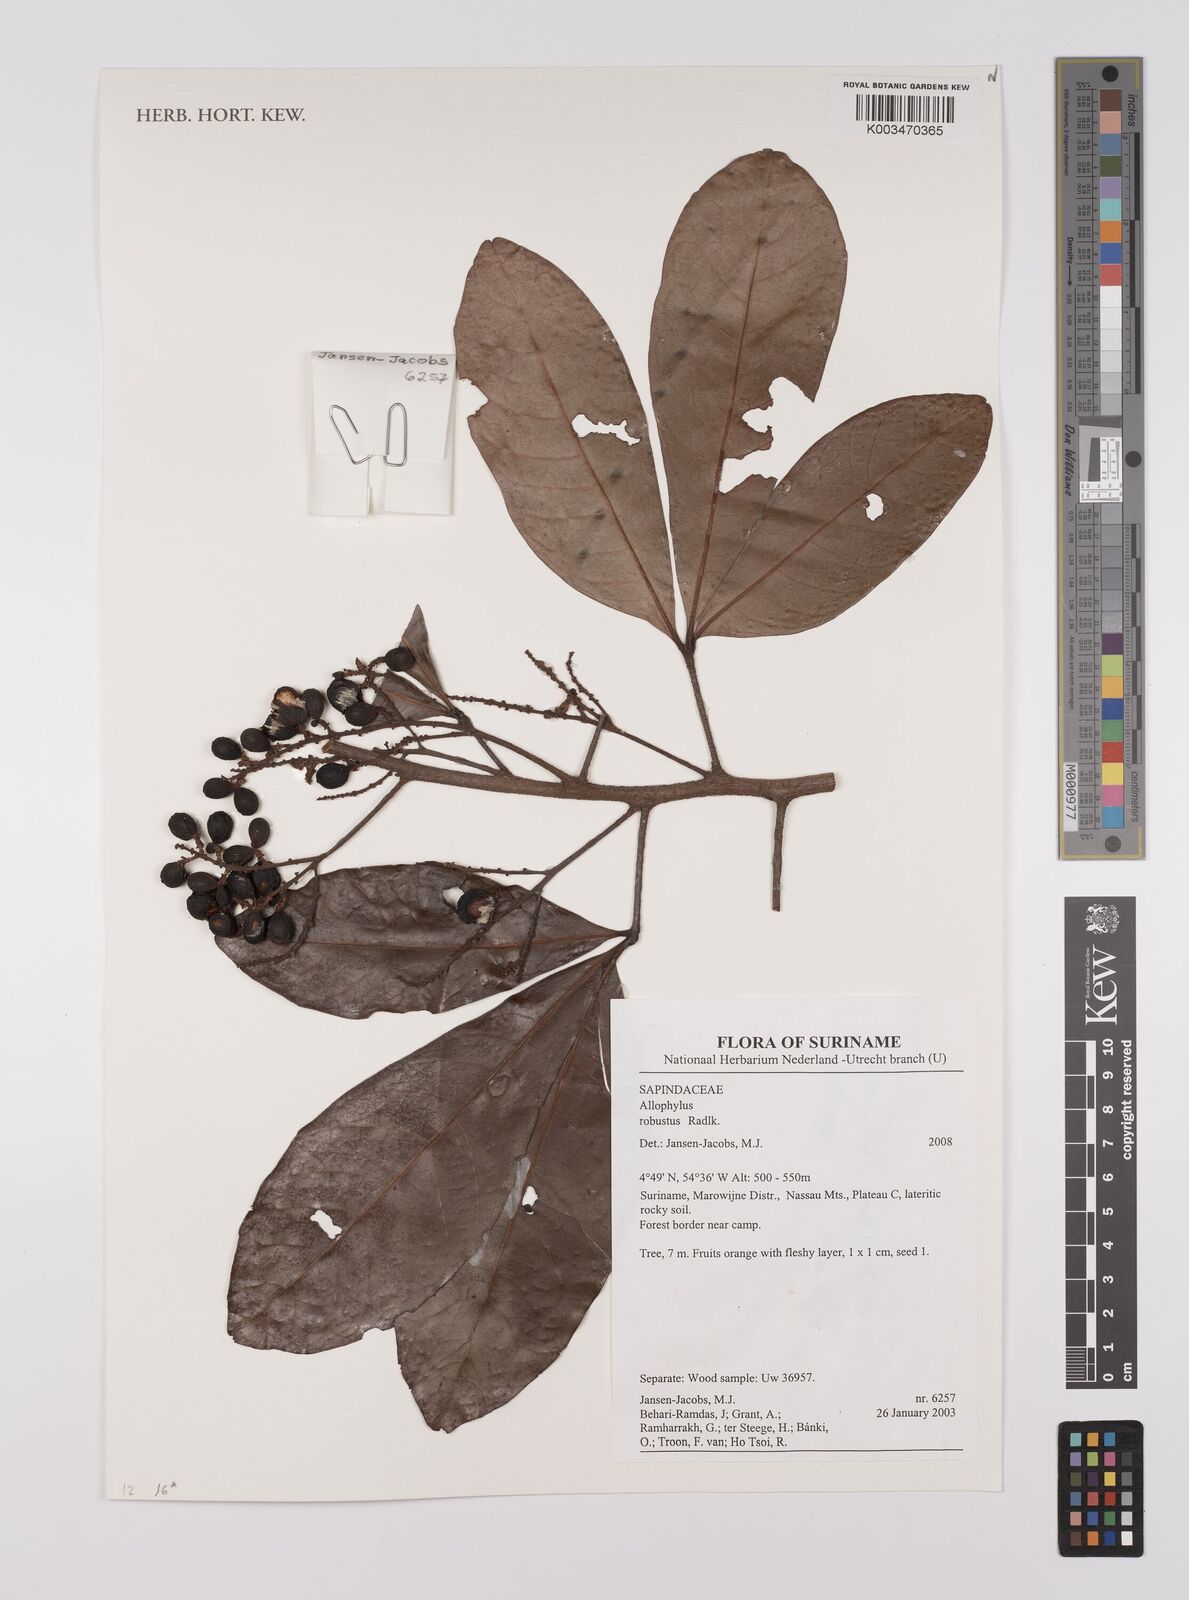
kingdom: Plantae
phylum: Tracheophyta
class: Magnoliopsida
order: Sapindales
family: Sapindaceae
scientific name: Sapindaceae
